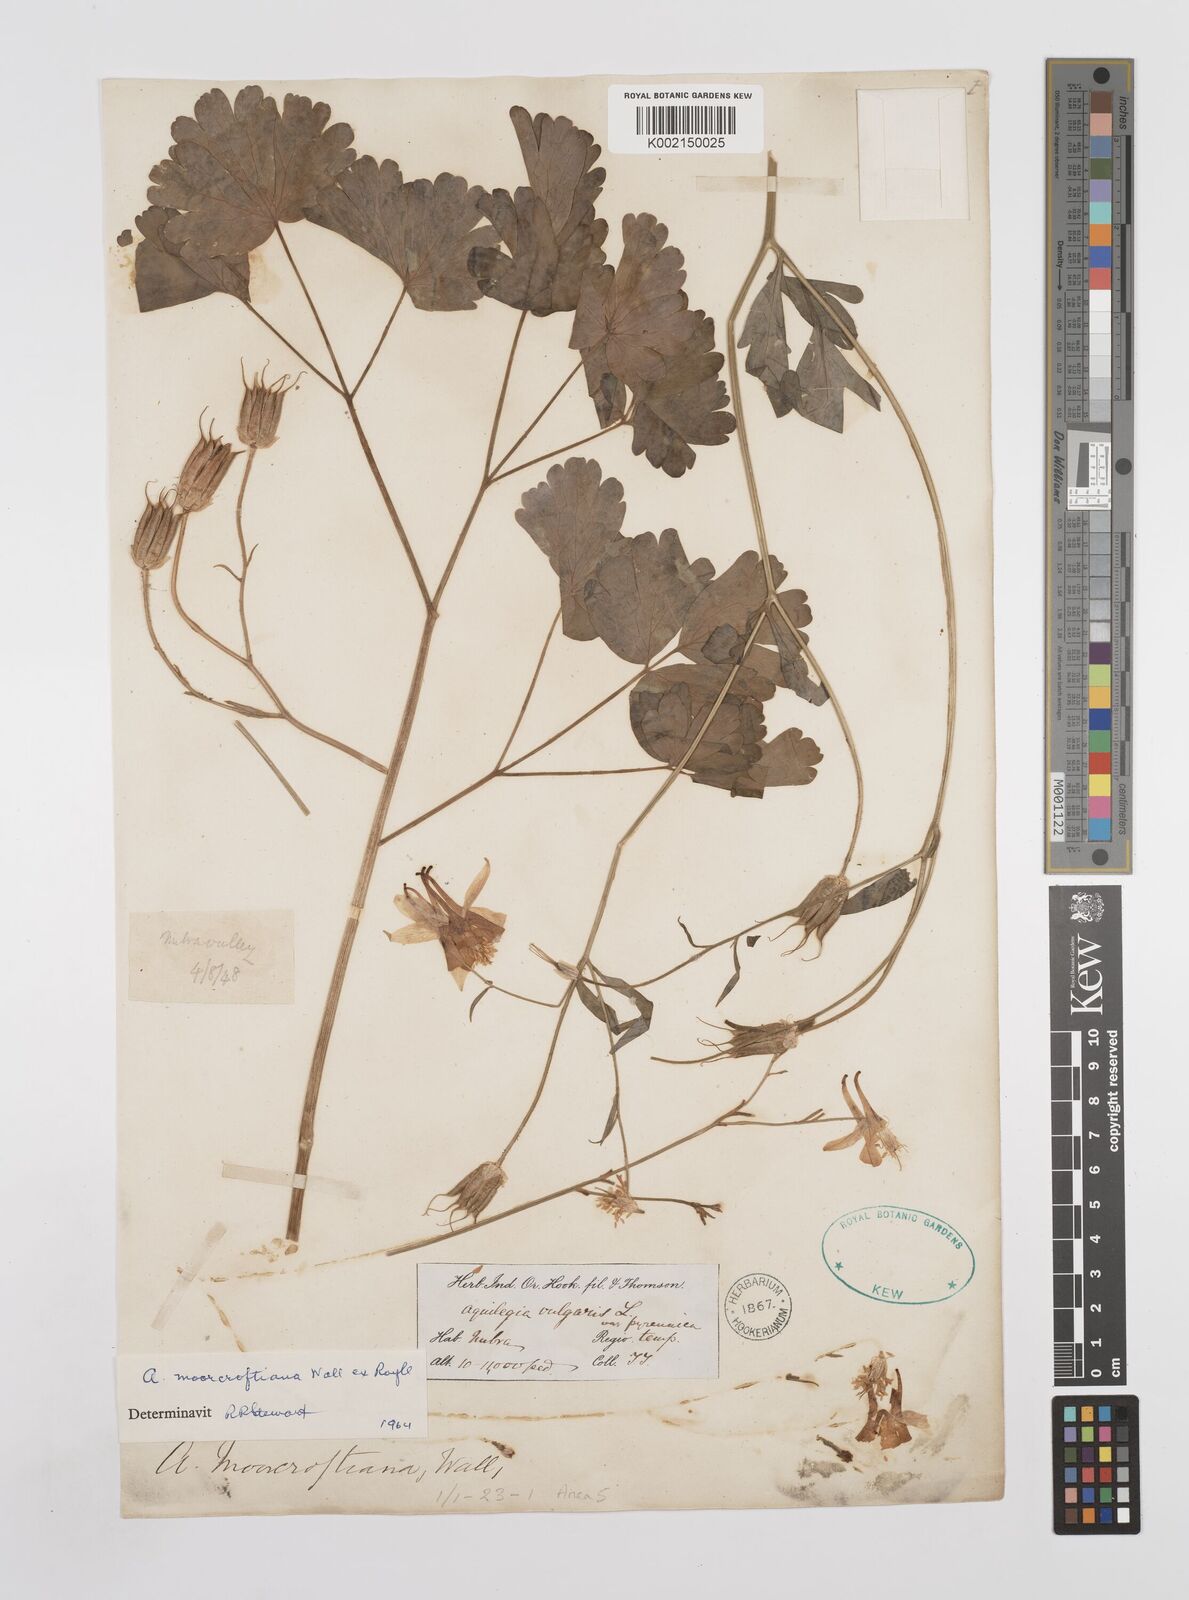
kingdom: Plantae
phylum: Tracheophyta
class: Magnoliopsida
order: Ranunculales
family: Ranunculaceae
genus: Aquilegia
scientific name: Aquilegia
